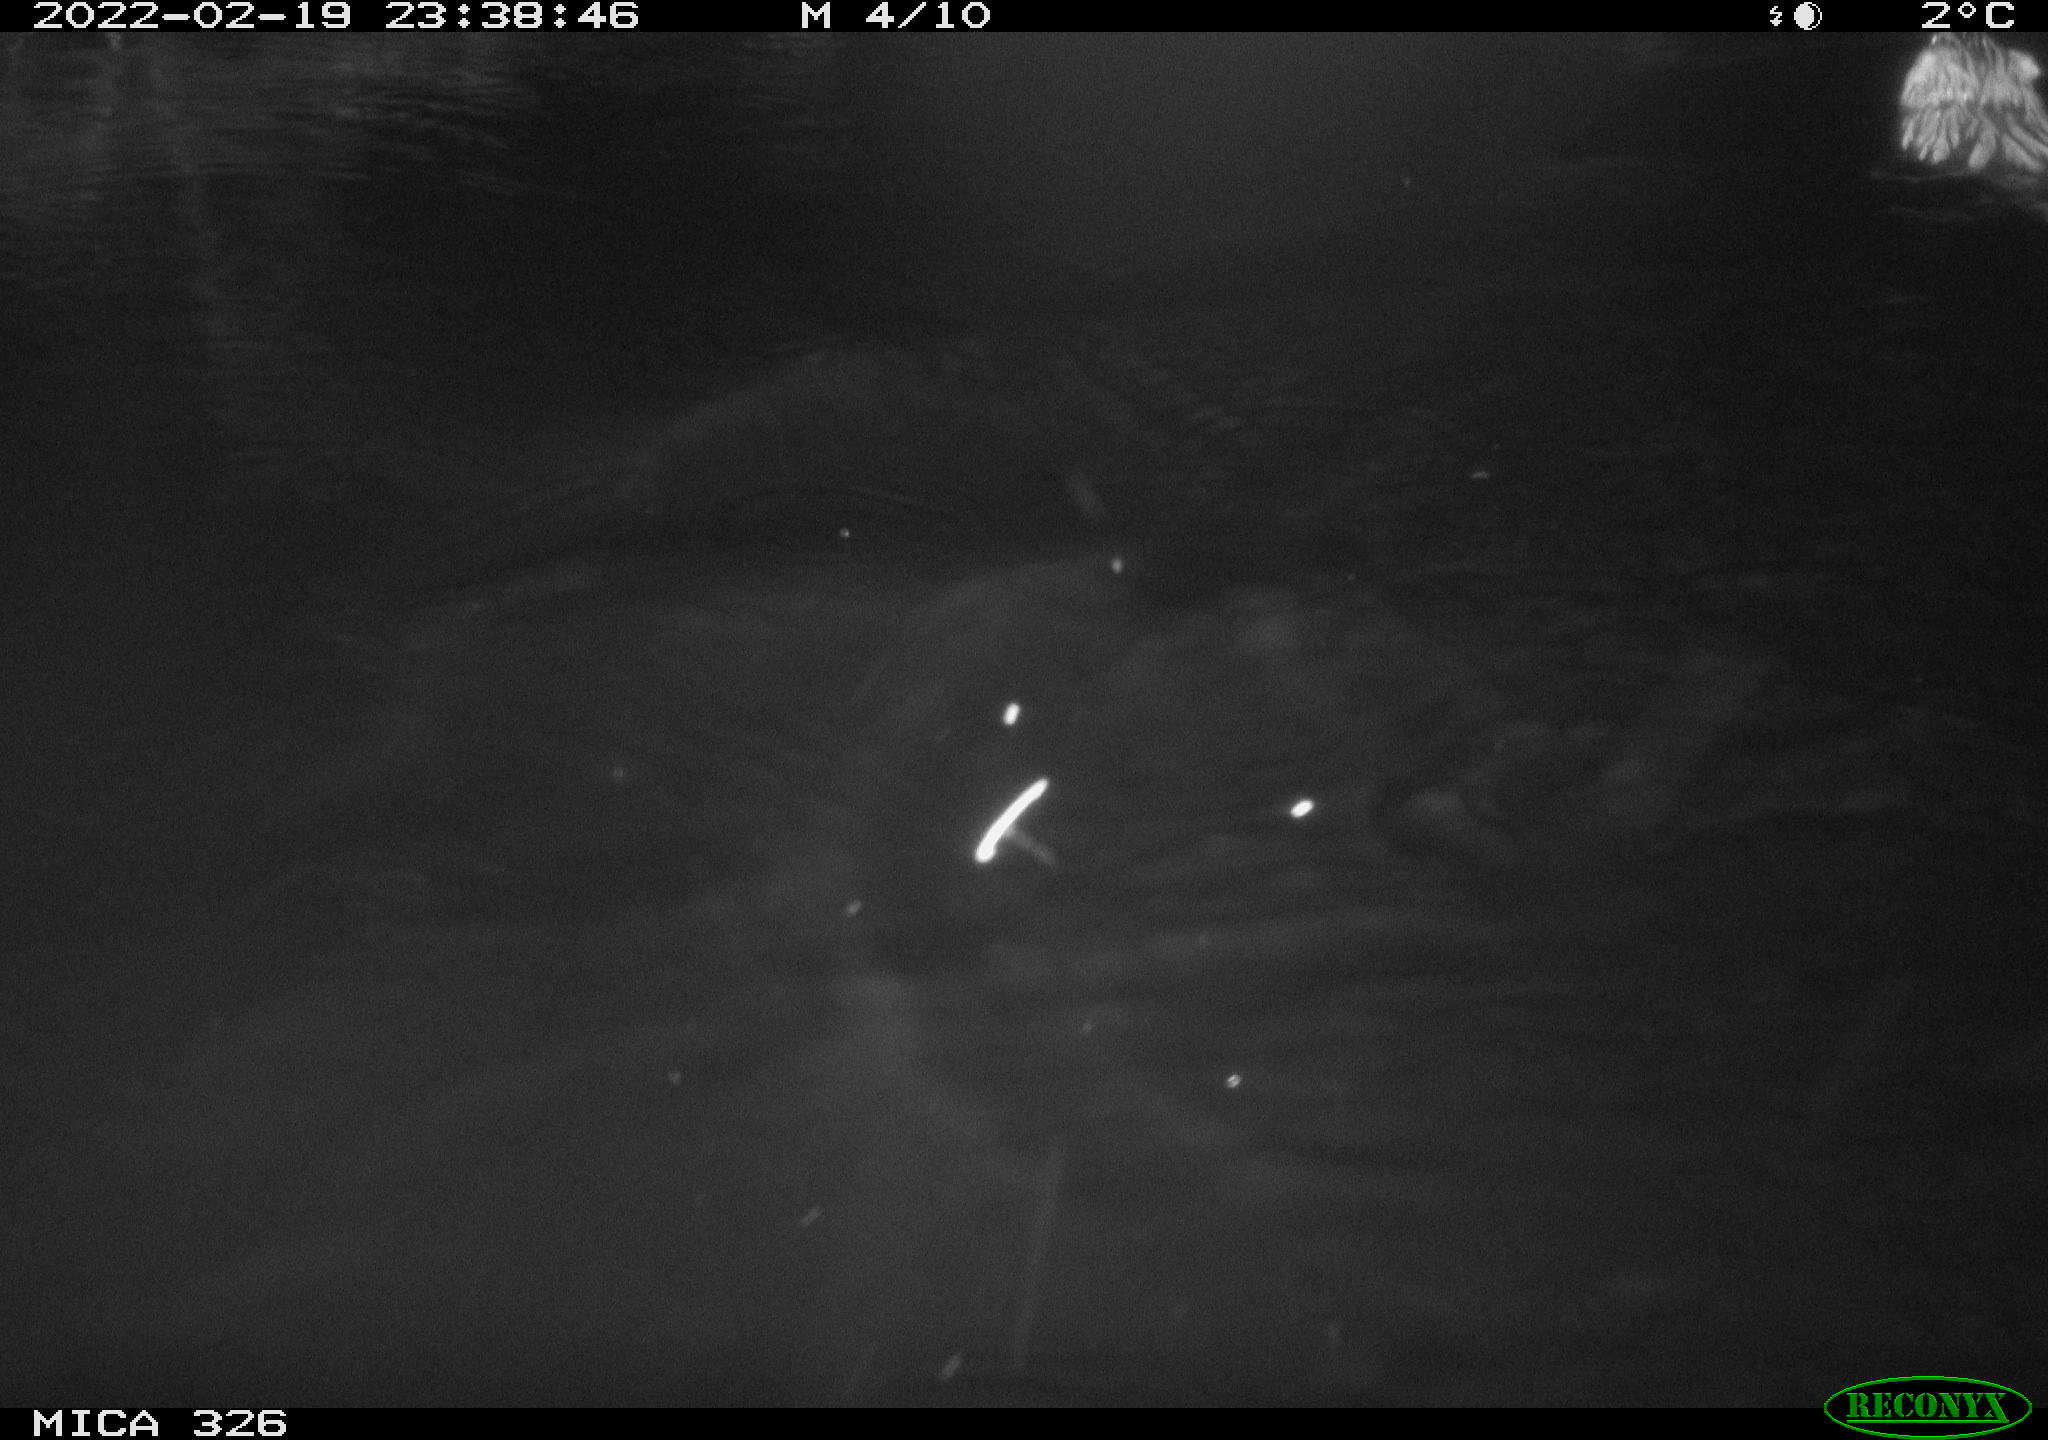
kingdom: Animalia
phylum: Chordata
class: Mammalia
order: Rodentia
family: Cricetidae
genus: Ondatra
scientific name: Ondatra zibethicus
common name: Muskrat
